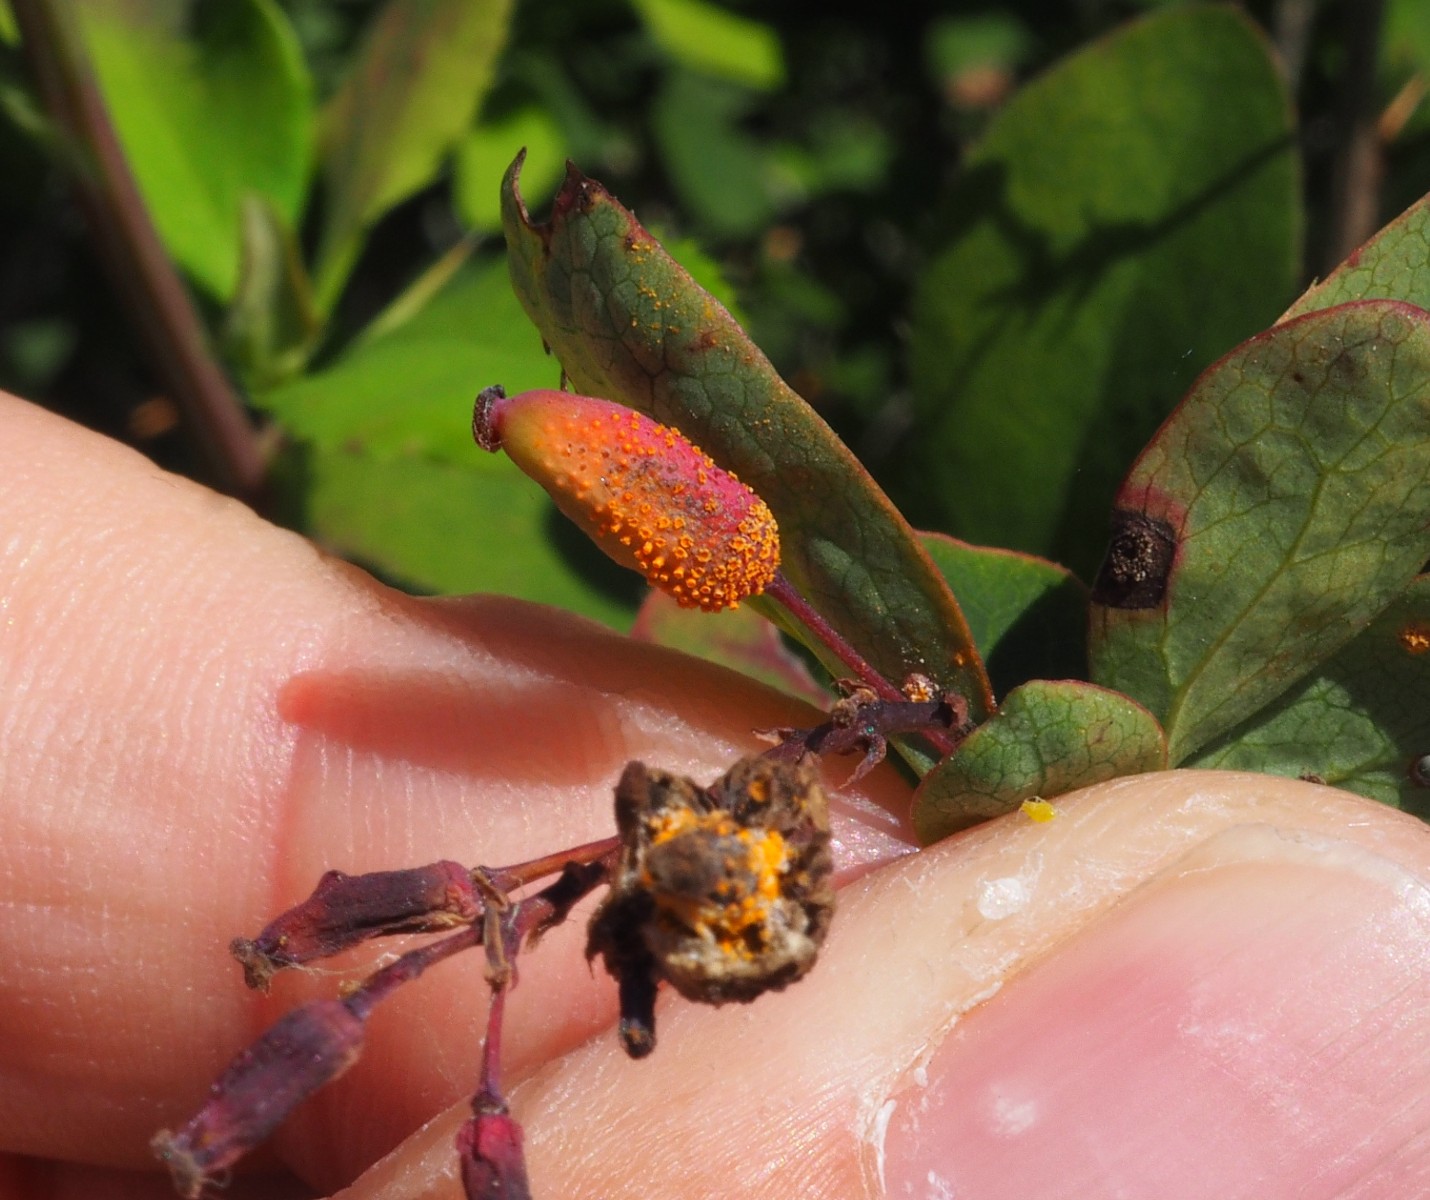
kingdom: Fungi
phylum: Basidiomycota
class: Pucciniomycetes
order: Pucciniales
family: Pucciniaceae
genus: Puccinia
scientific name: Puccinia graminis
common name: græssernes tvecellerust
